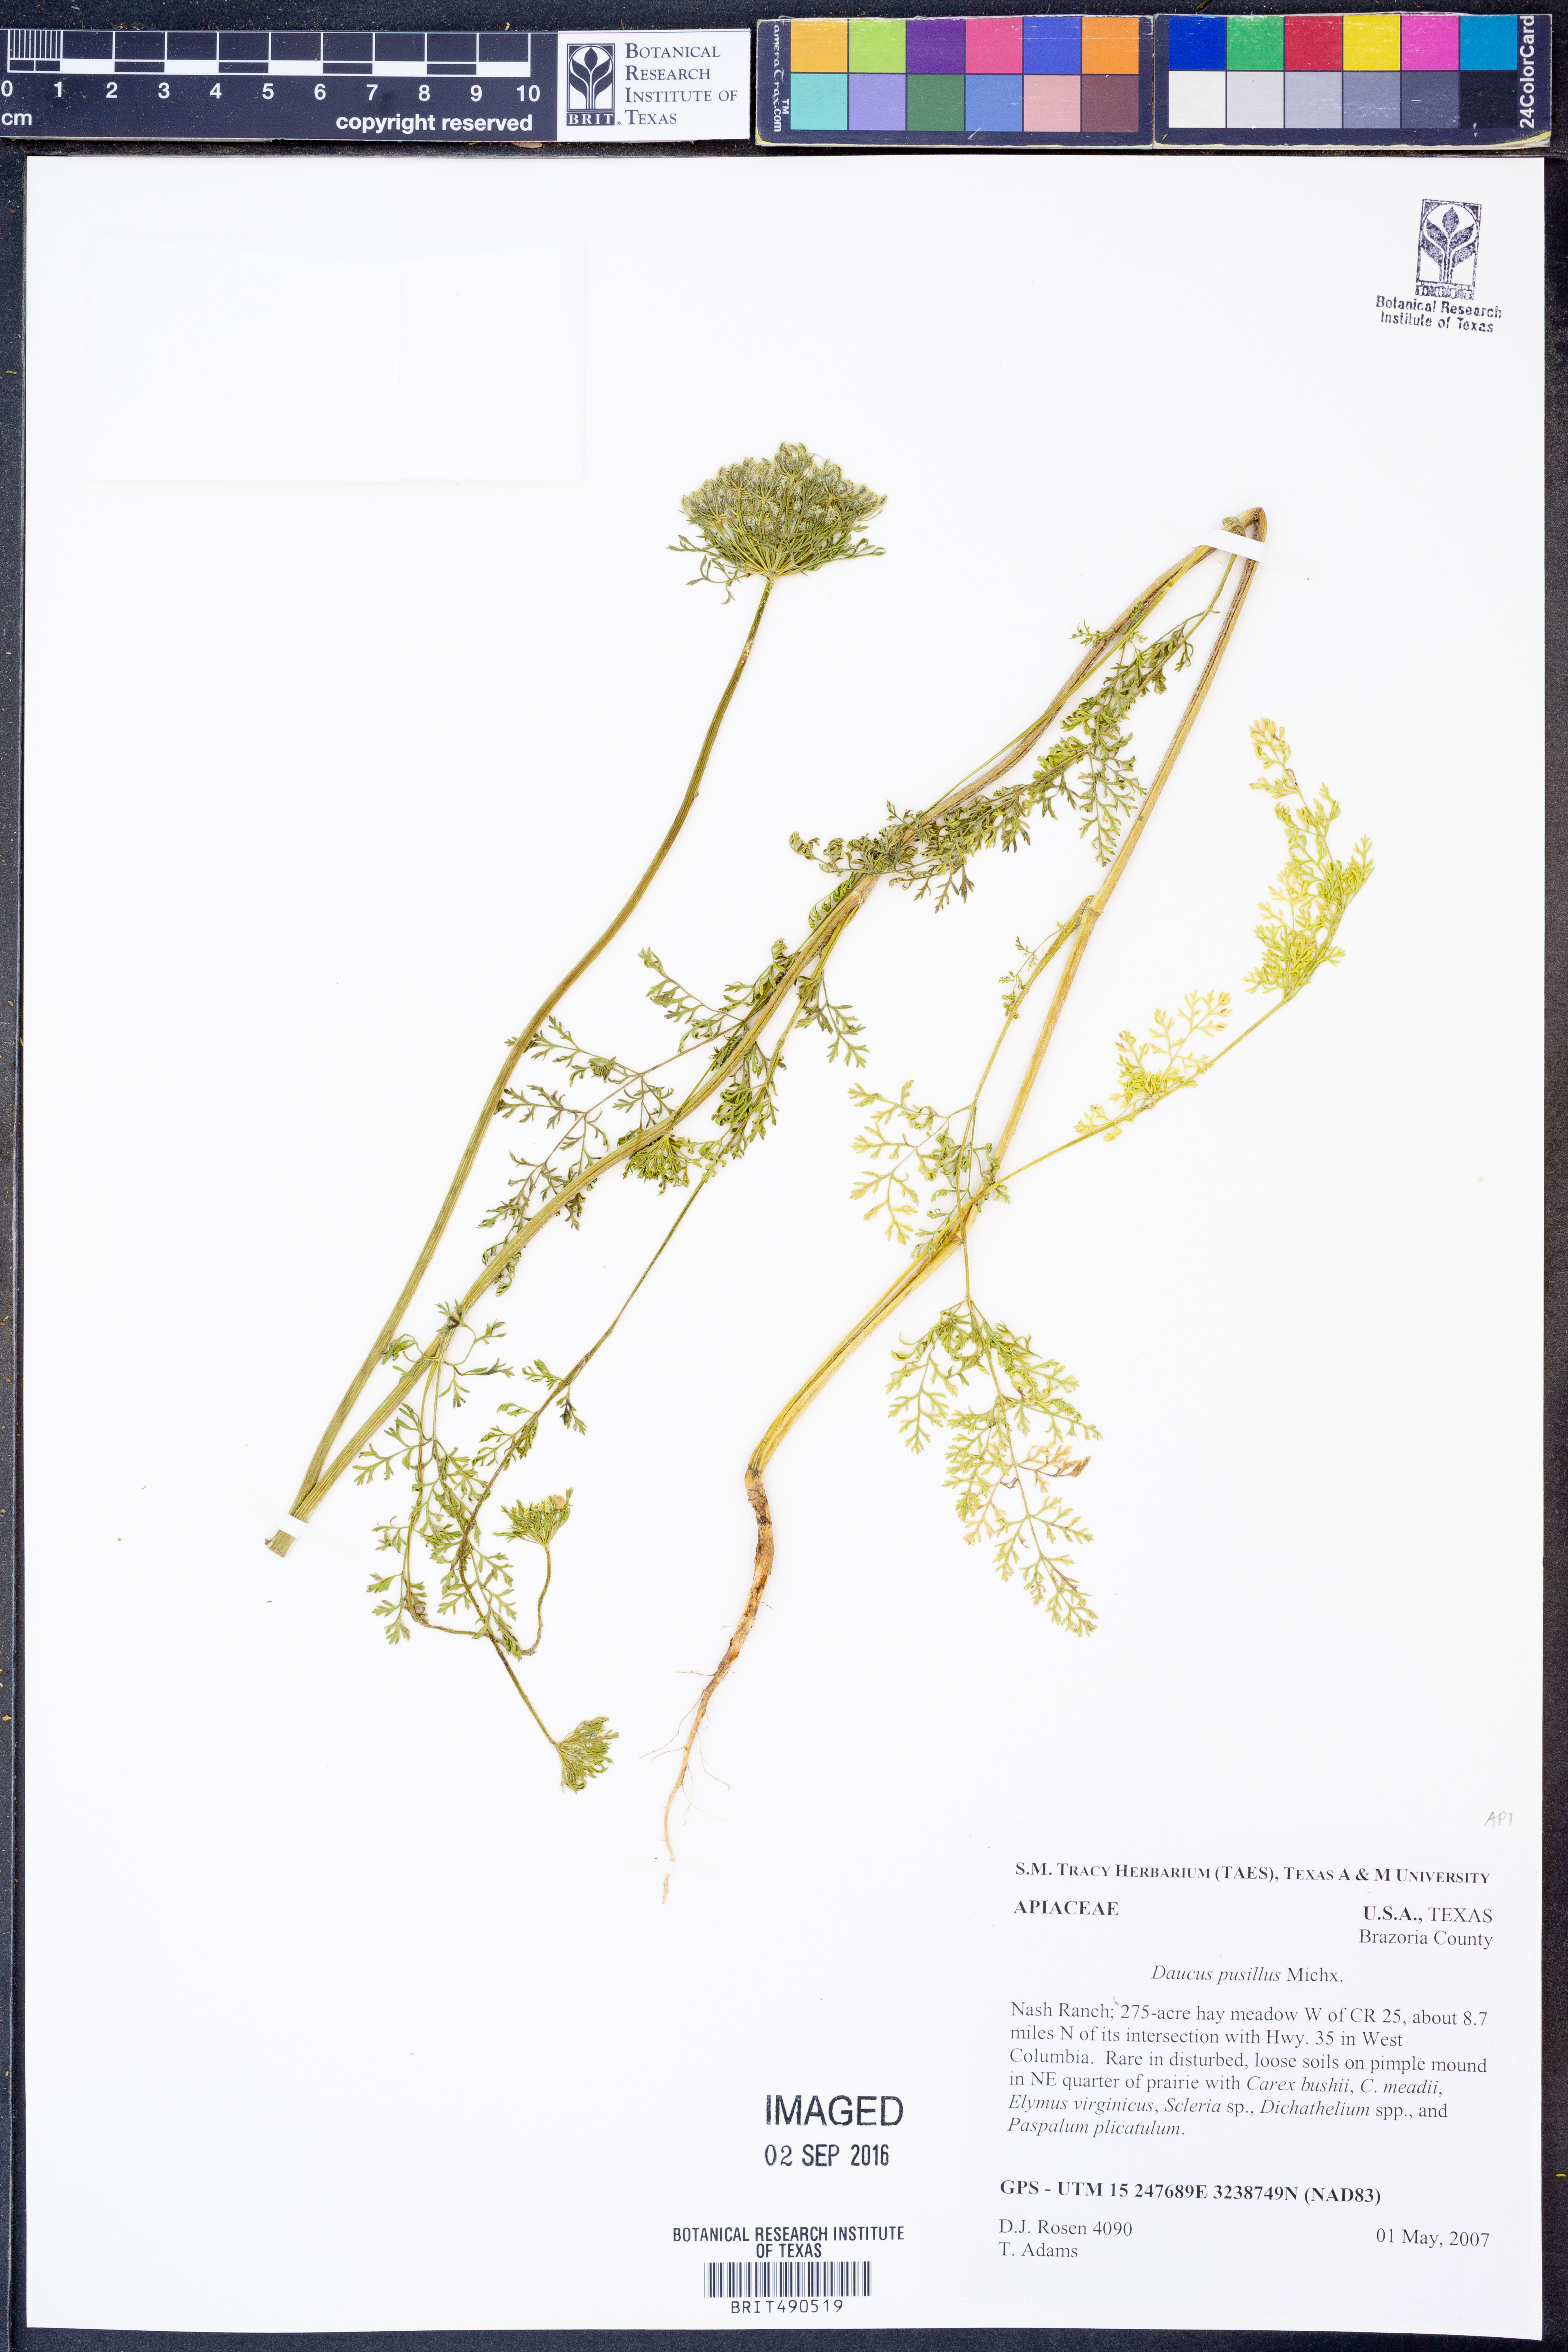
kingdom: Plantae
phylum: Tracheophyta
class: Magnoliopsida
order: Apiales
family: Apiaceae
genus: Daucus
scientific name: Daucus pusillus
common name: Southwest wild carrot
